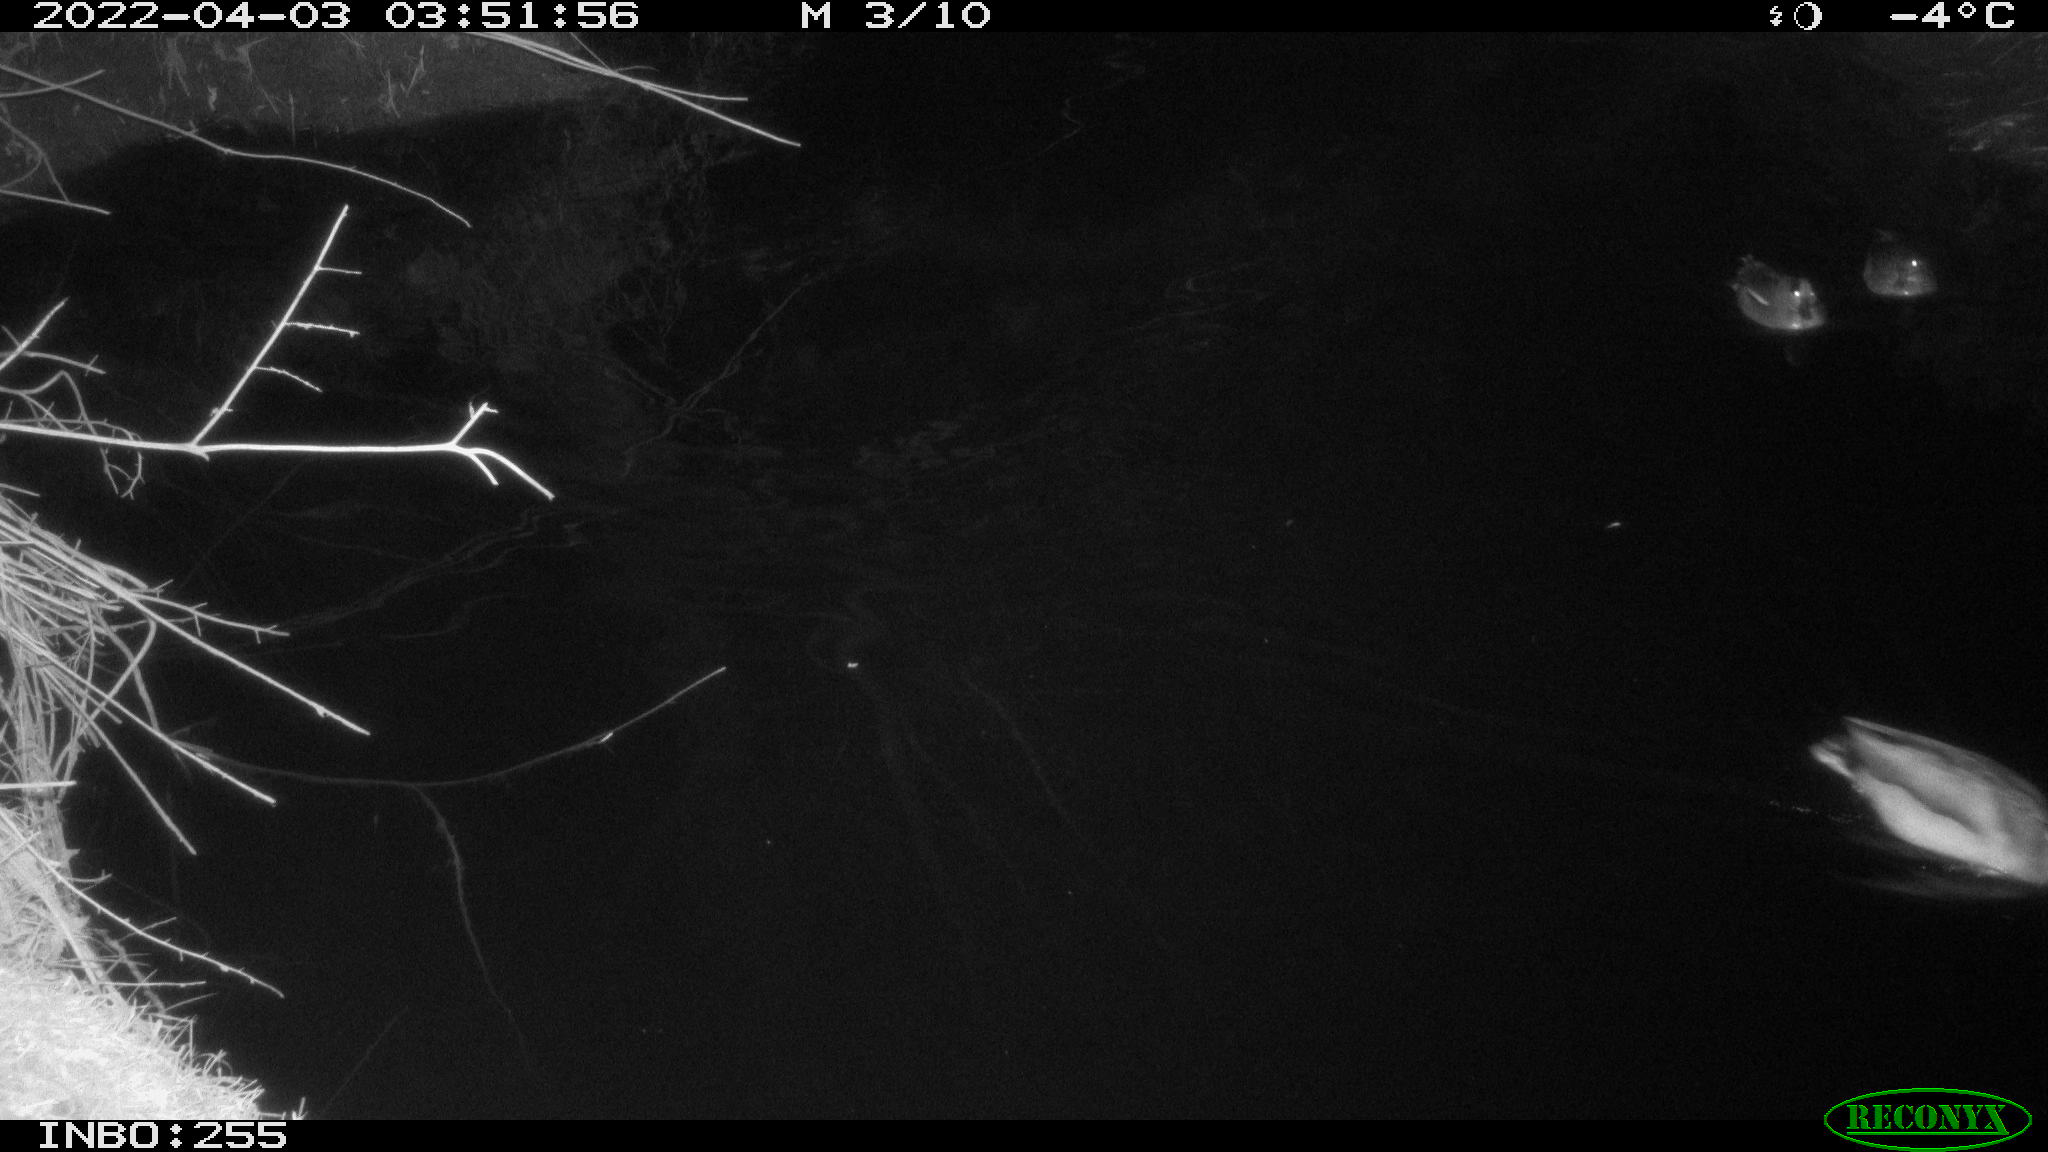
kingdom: Animalia
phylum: Chordata
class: Aves
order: Anseriformes
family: Anatidae
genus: Anas
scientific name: Anas platyrhynchos
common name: Mallard
